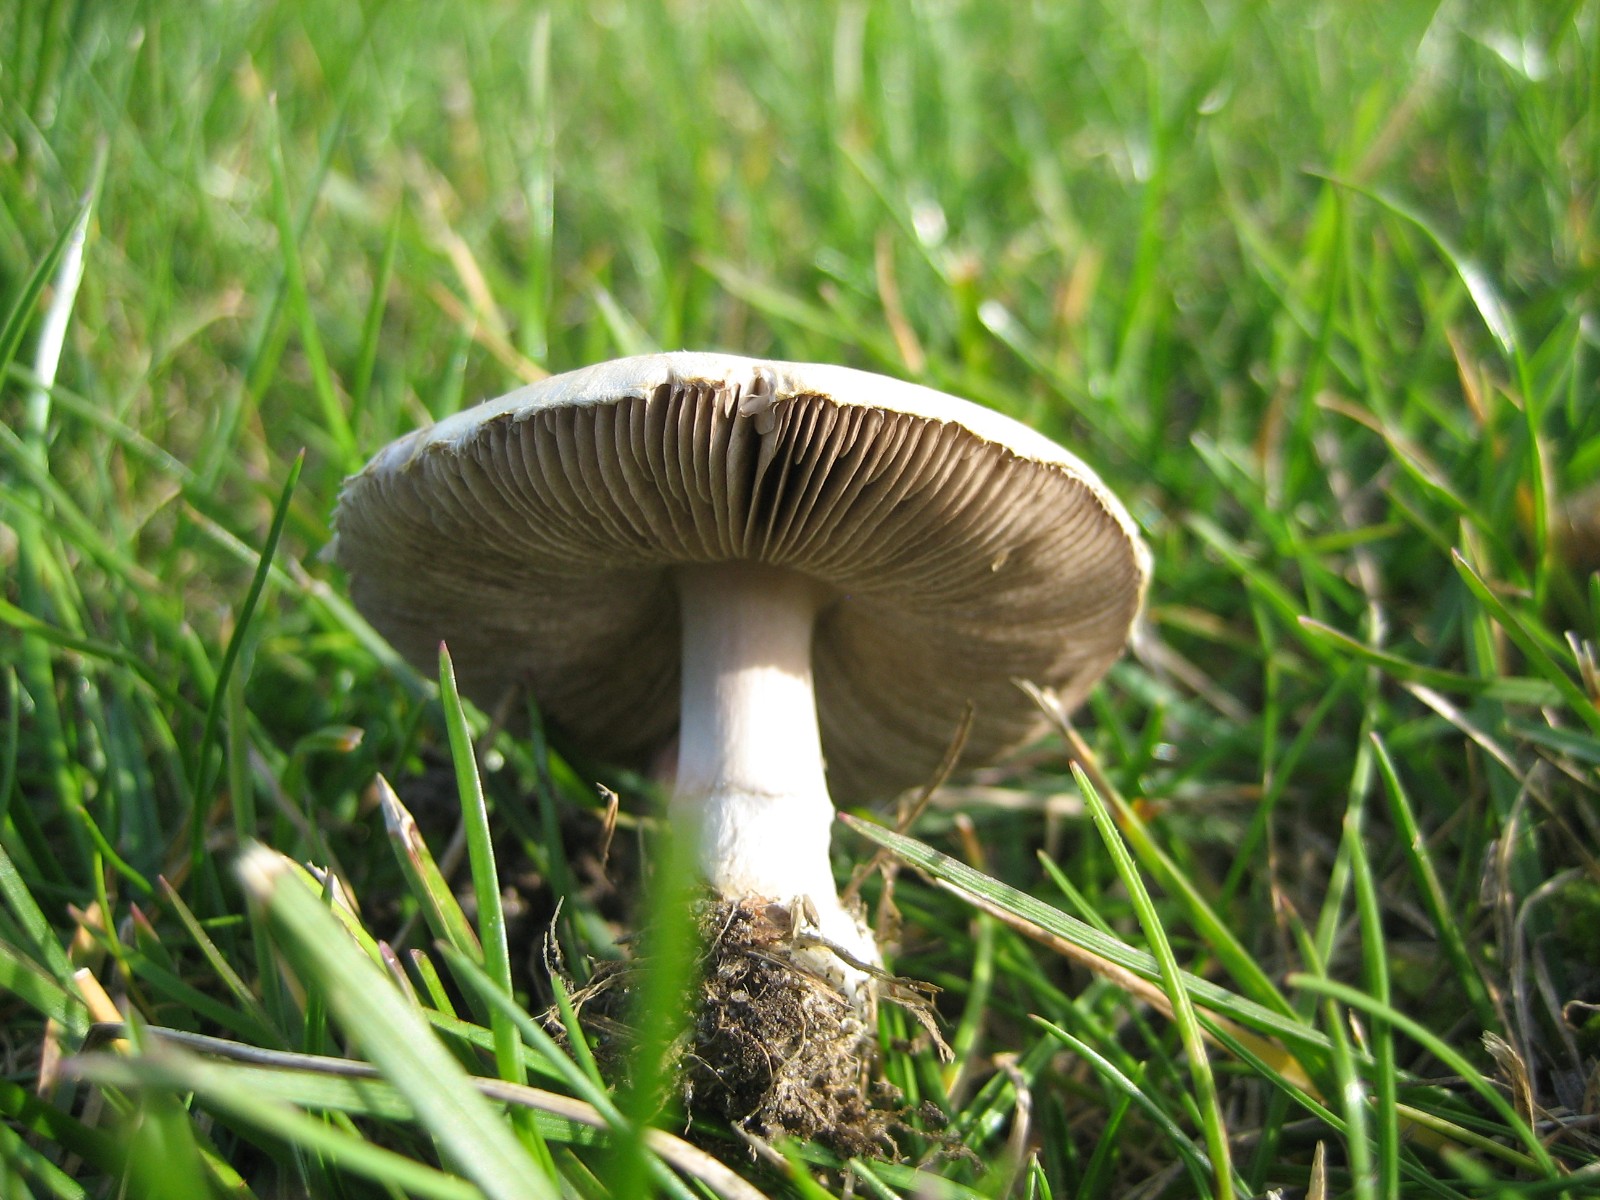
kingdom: Fungi
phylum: Basidiomycota
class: Agaricomycetes
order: Agaricales
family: Agaricaceae
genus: Agaricus
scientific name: Agaricus
